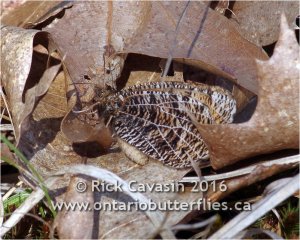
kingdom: Animalia
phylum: Arthropoda
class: Insecta
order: Lepidoptera
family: Nymphalidae
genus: Oeneis
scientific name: Oeneis chryxus
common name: Chryxus Arctic
